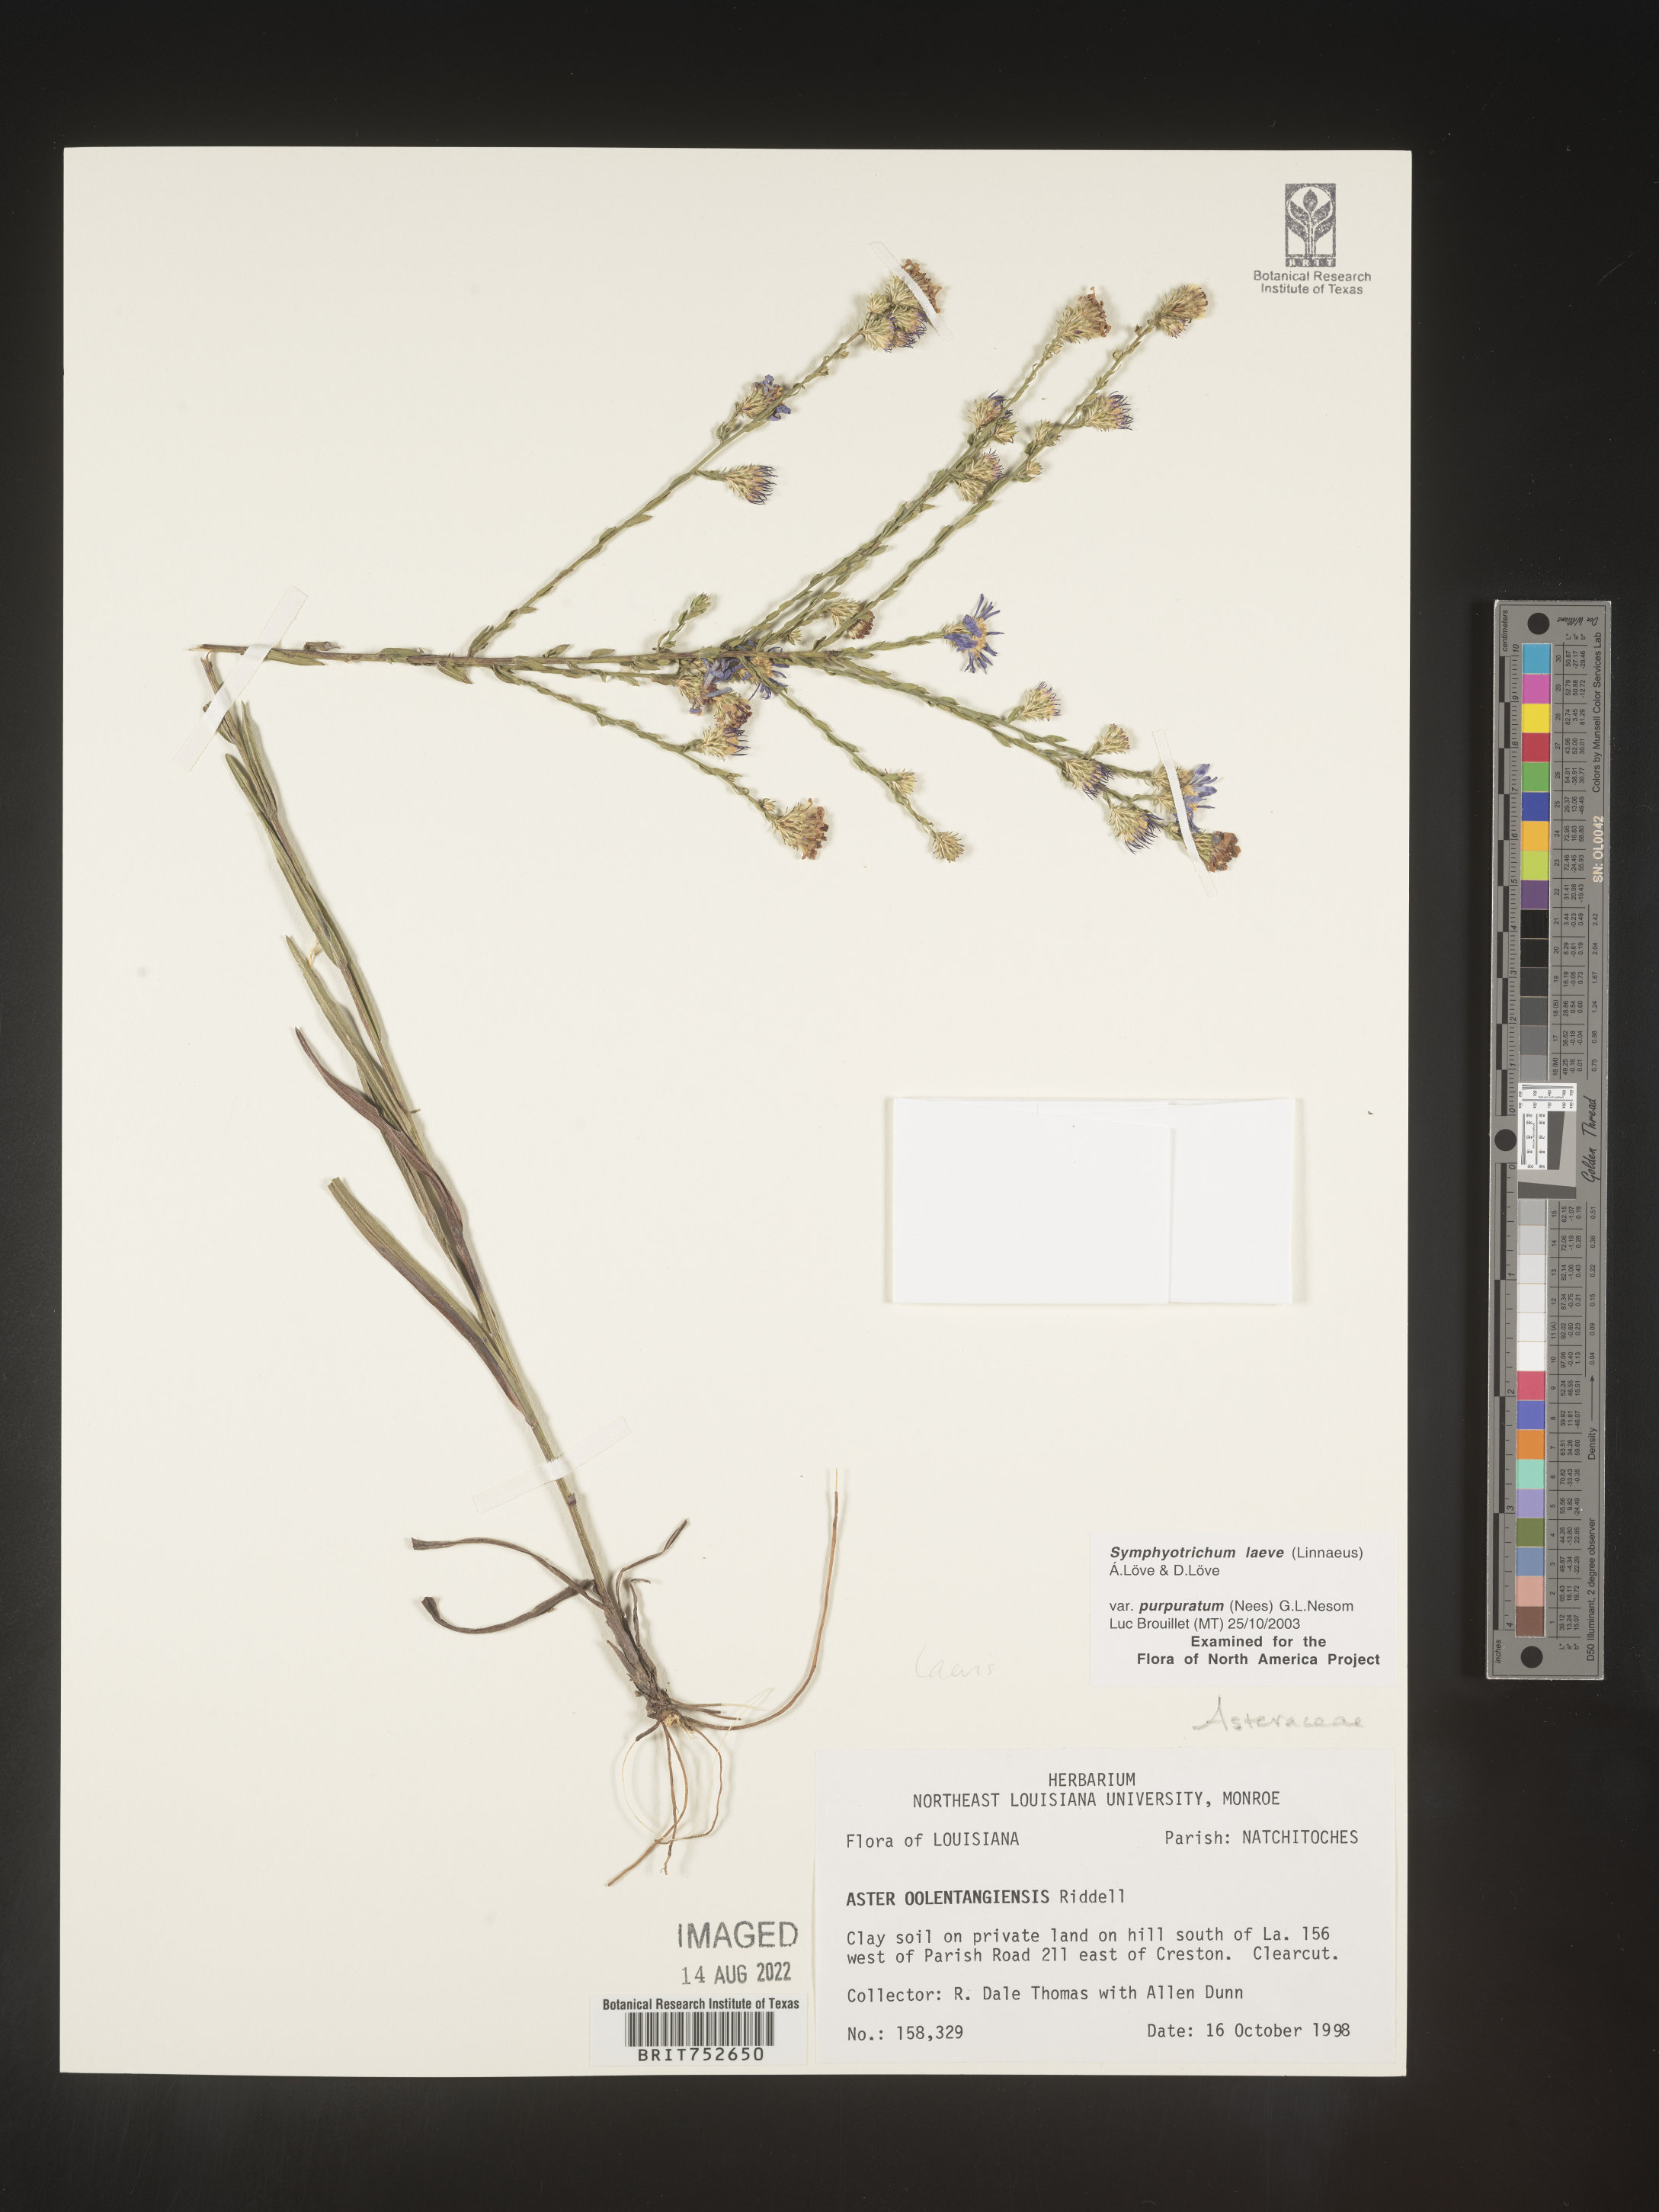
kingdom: Plantae
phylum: Tracheophyta
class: Magnoliopsida
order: Asterales
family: Asteraceae
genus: Symphyotrichum
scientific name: Symphyotrichum laeve
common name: Glaucous aster
